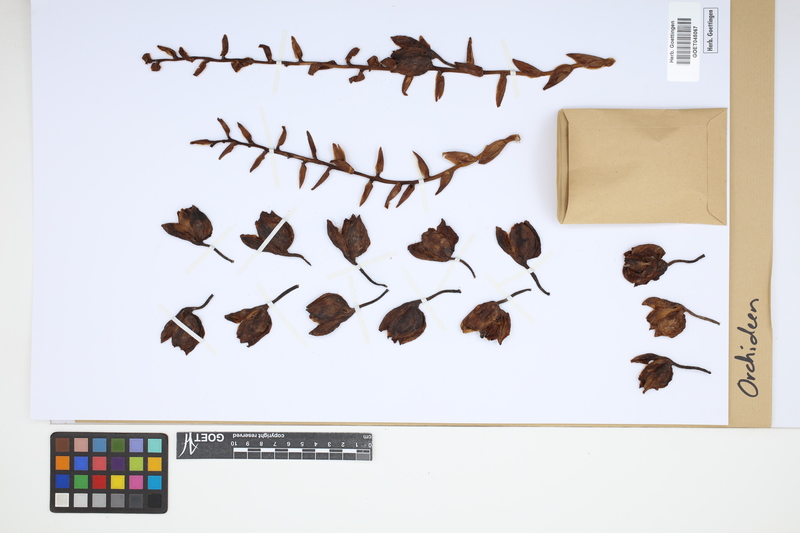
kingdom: Plantae
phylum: Tracheophyta
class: Liliopsida
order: Asparagales
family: Orchidaceae
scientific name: Orchidaceae
